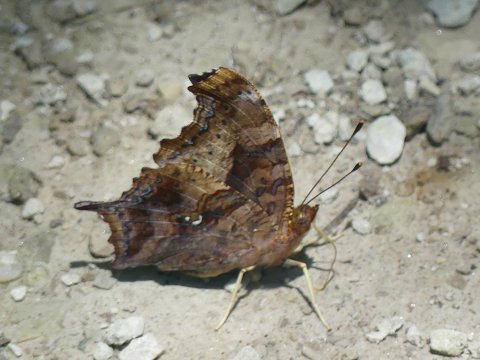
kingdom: Animalia
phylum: Arthropoda
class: Insecta
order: Lepidoptera
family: Nymphalidae
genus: Polygonia
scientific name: Polygonia interrogationis
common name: Question Mark
